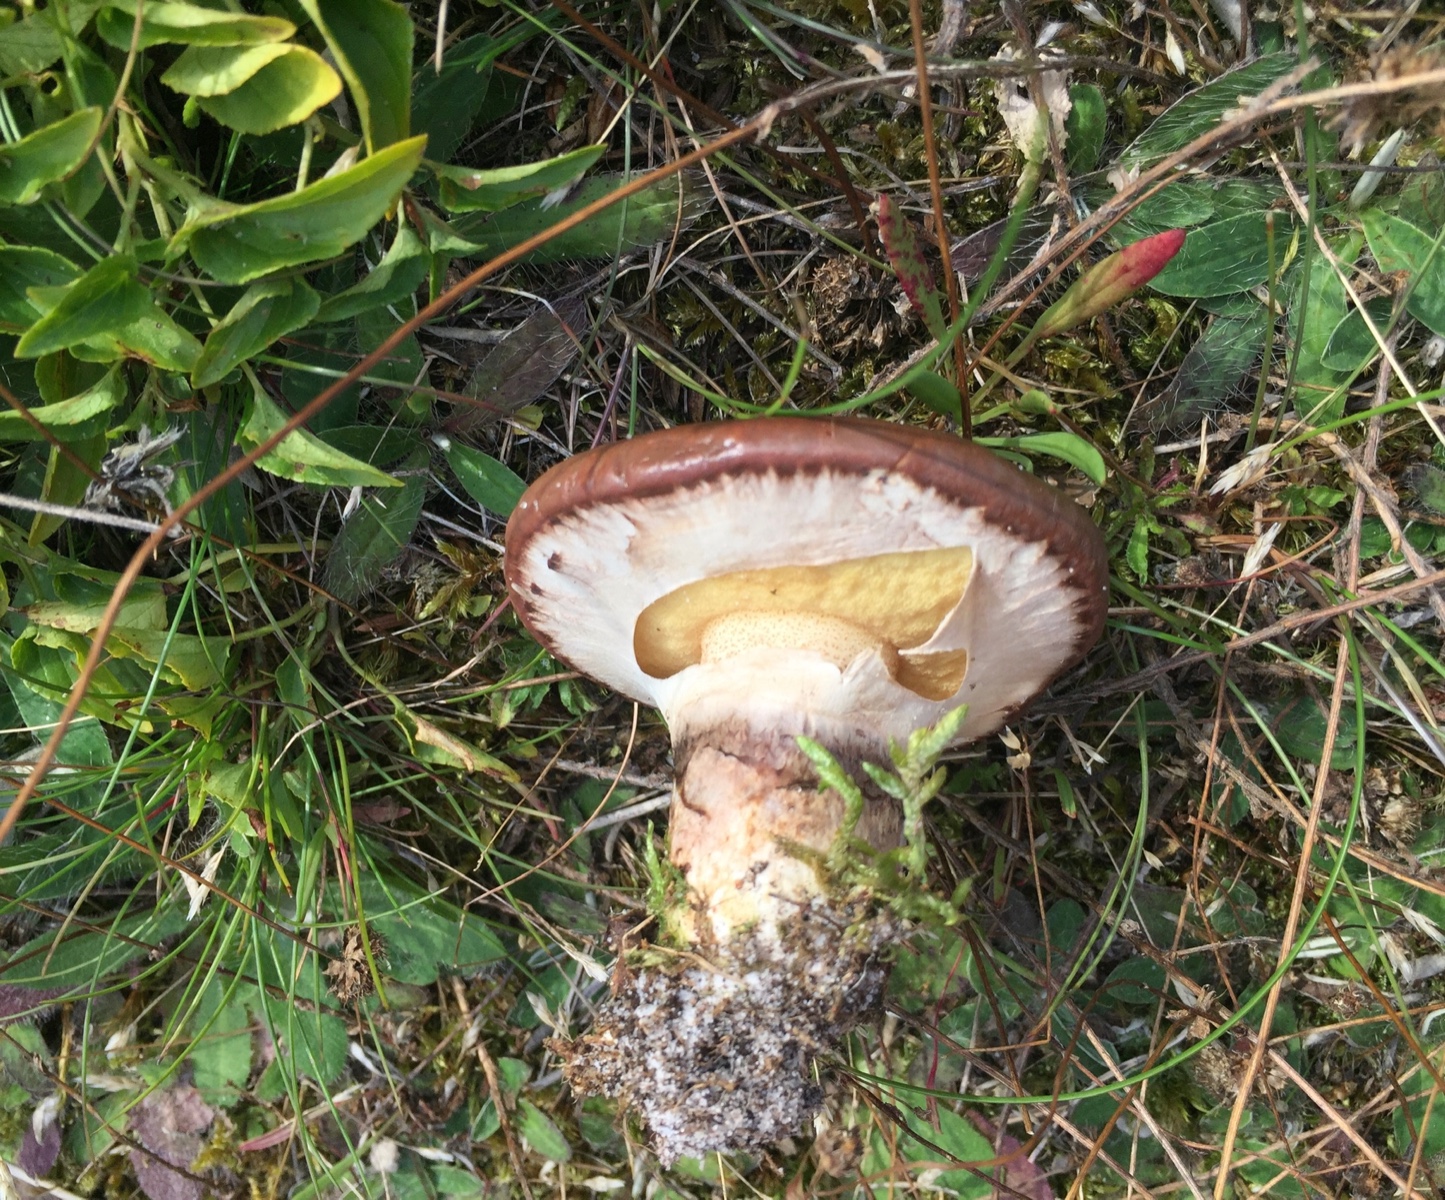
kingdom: Fungi
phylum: Basidiomycota
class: Agaricomycetes
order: Boletales
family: Suillaceae
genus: Suillus
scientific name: Suillus luteus
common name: brungul slimrørhat
